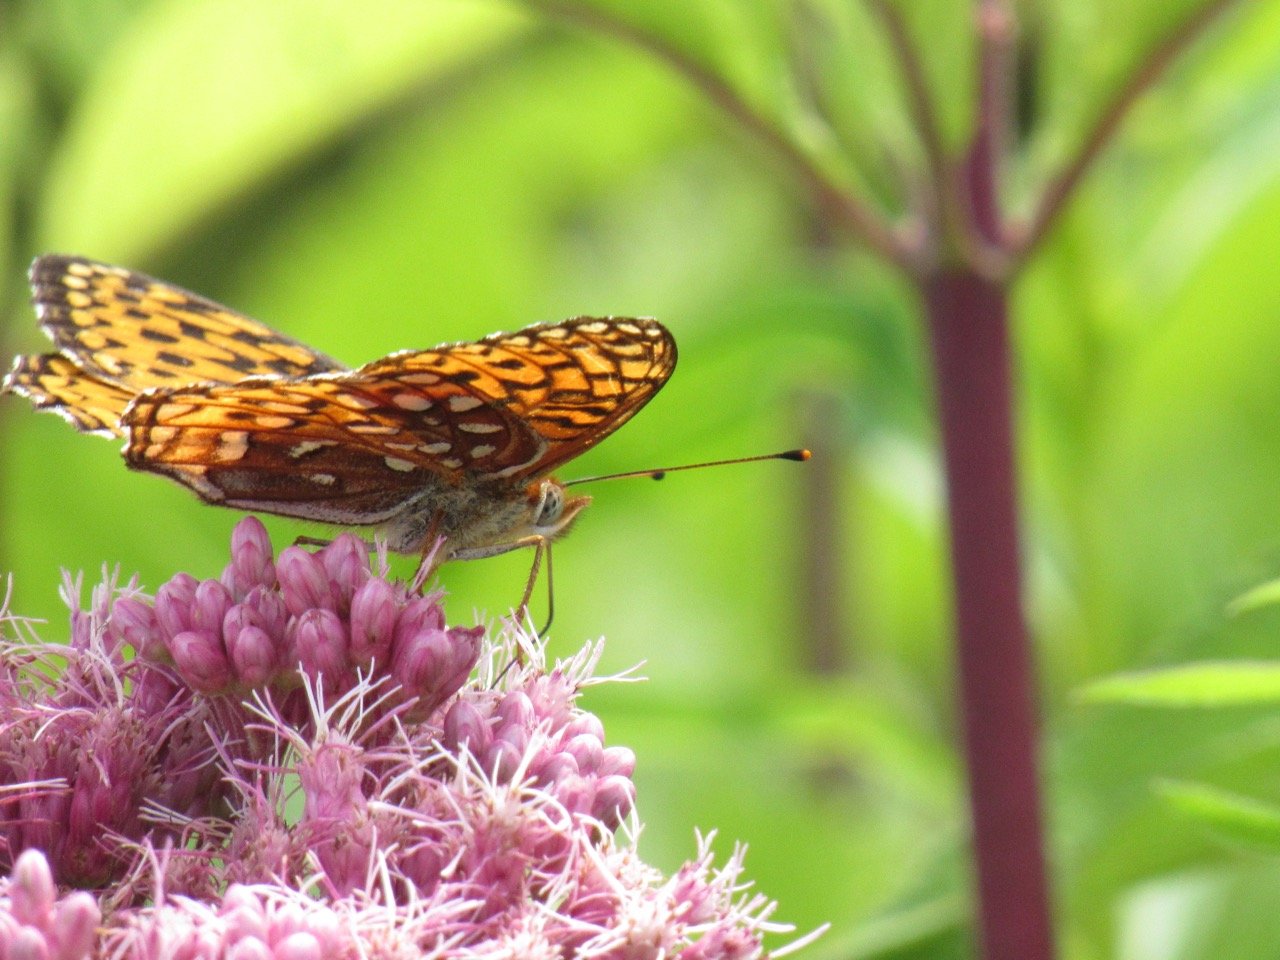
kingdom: Animalia
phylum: Arthropoda
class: Insecta
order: Lepidoptera
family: Nymphalidae
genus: Speyeria
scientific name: Speyeria atlantis
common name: Atlantis Fritillary
